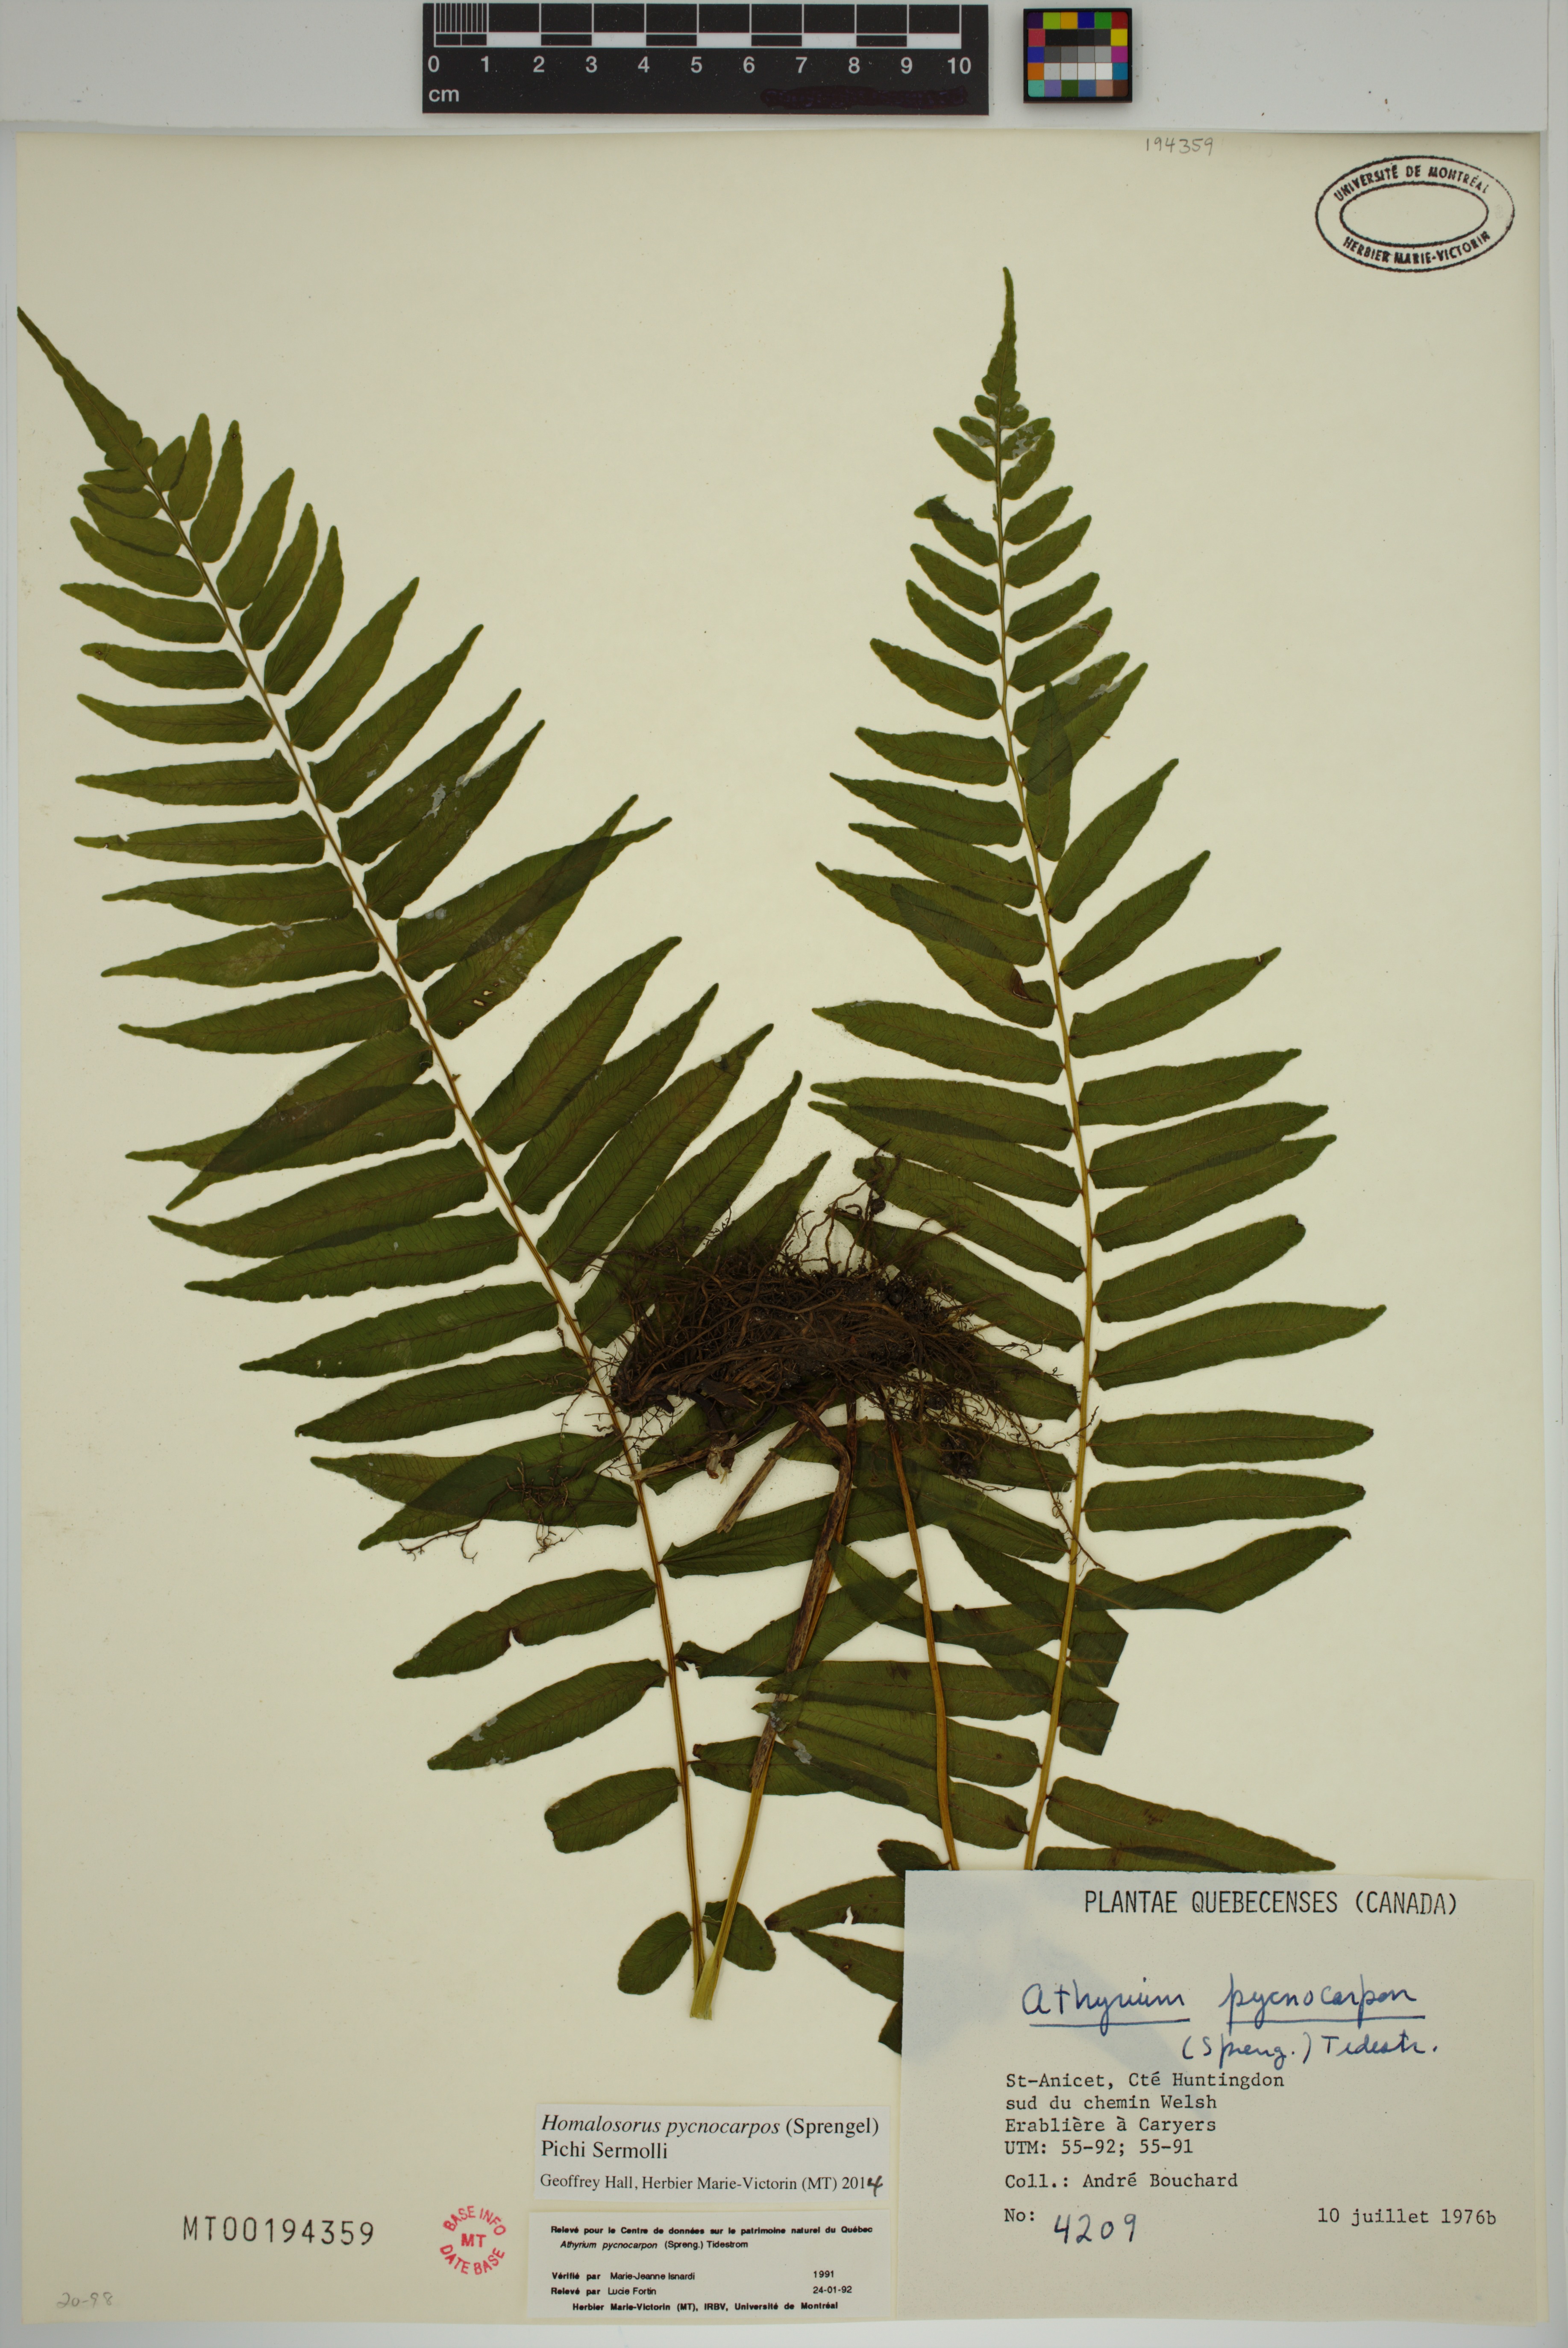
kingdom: Plantae
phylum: Tracheophyta
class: Polypodiopsida
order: Polypodiales
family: Diplaziopsidaceae
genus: Homalosorus
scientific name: Homalosorus pycnocarpos
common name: Glade fern
